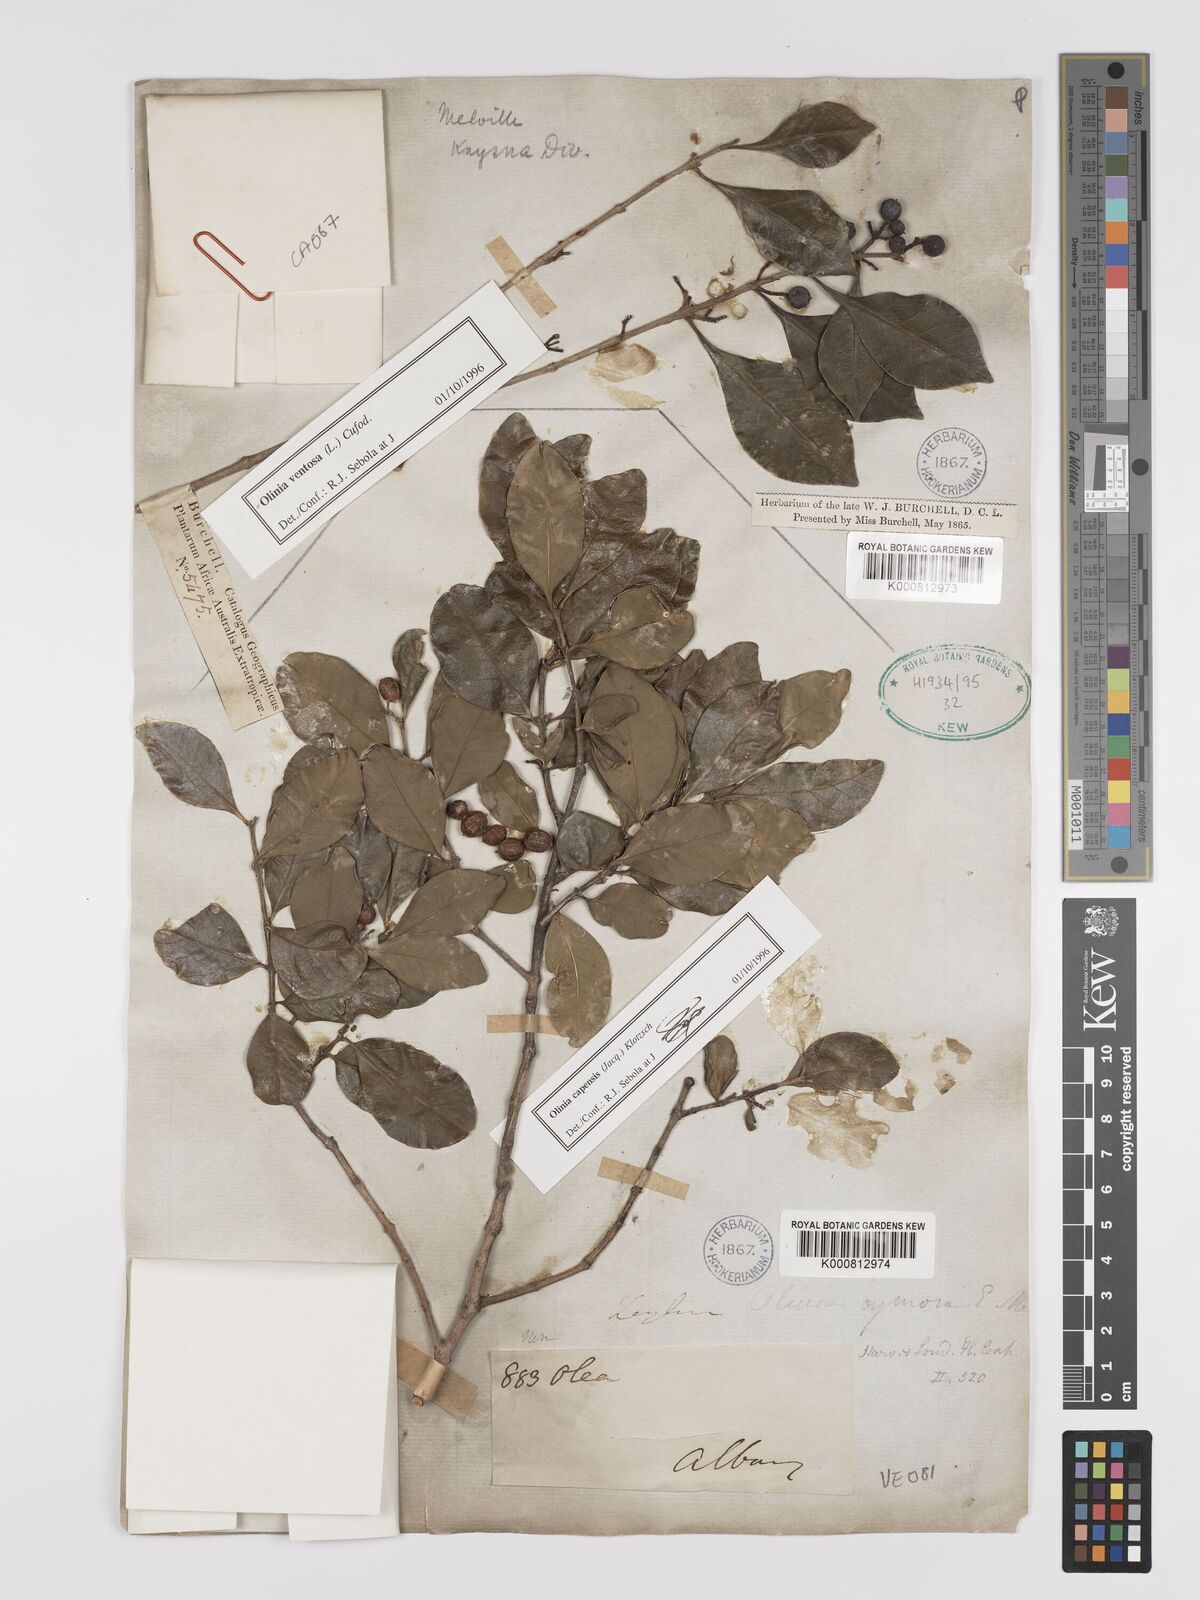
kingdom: Plantae
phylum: Tracheophyta
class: Magnoliopsida
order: Myrtales
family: Penaeaceae
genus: Olinia
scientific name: Olinia ventosa
